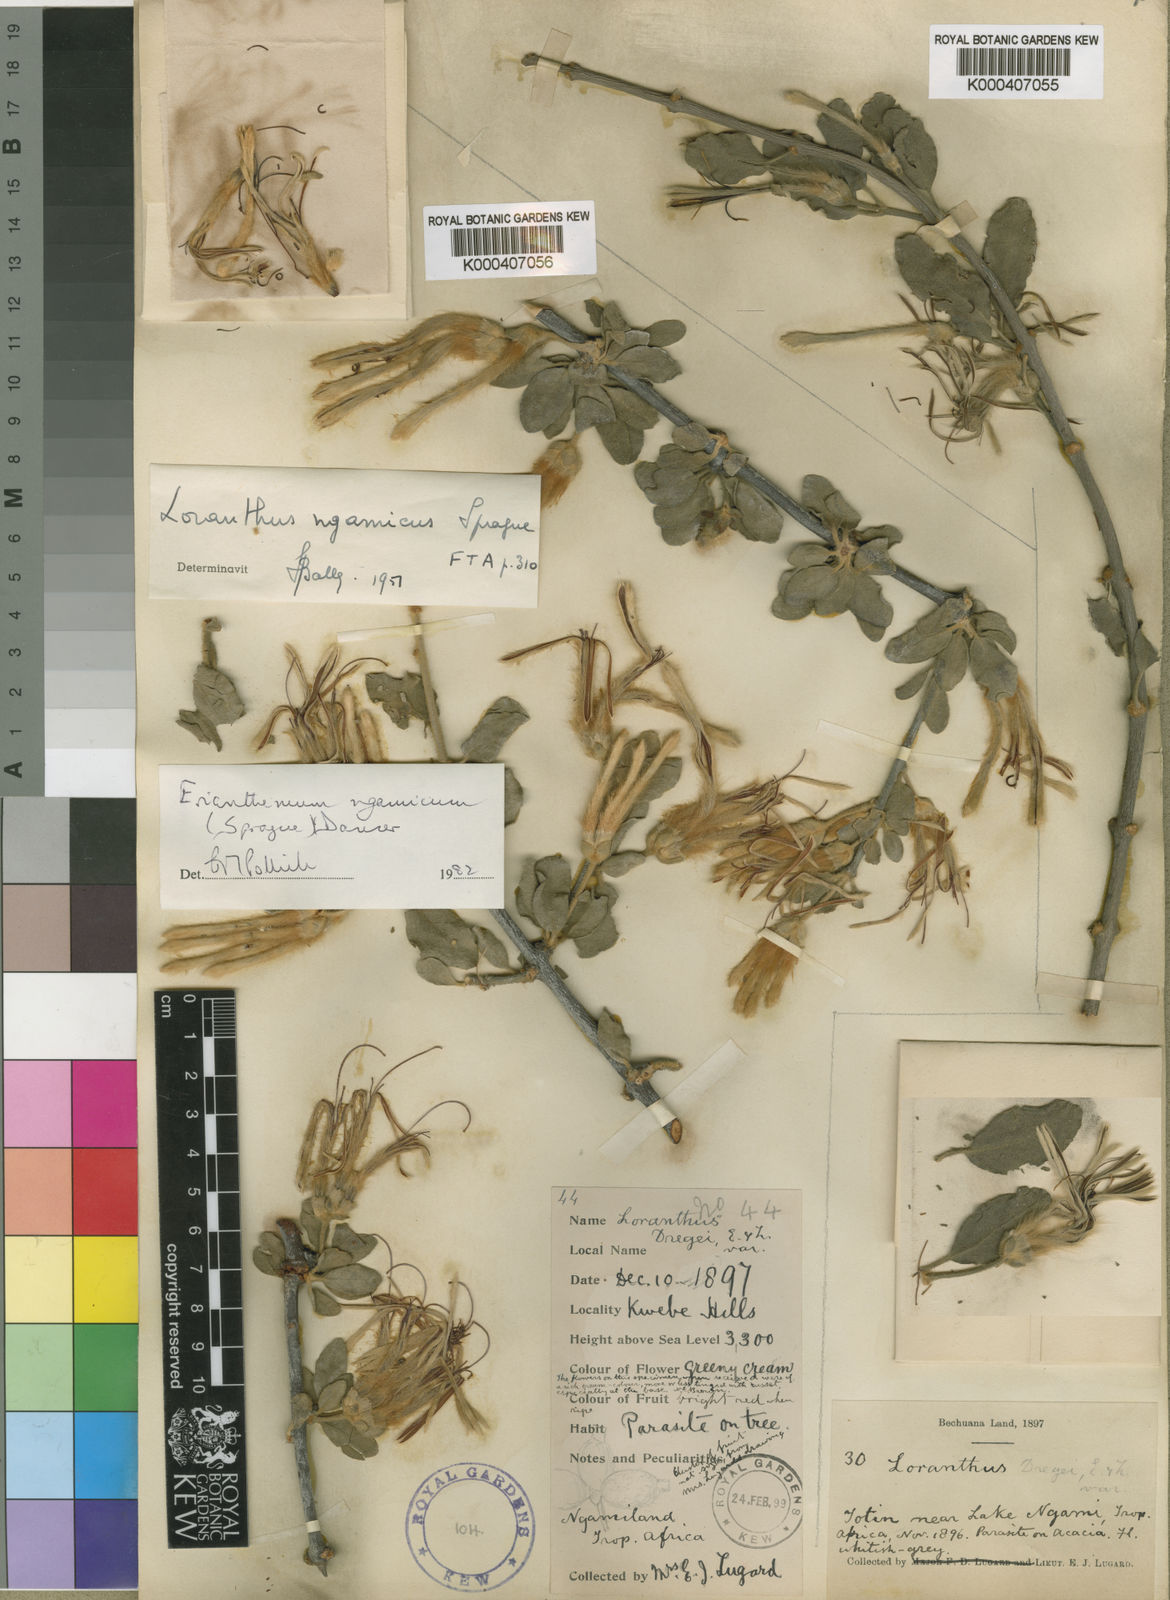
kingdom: Plantae
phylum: Tracheophyta
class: Magnoliopsida
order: Santalales
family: Loranthaceae
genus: Erianthemum
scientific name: Erianthemum ngamicum
